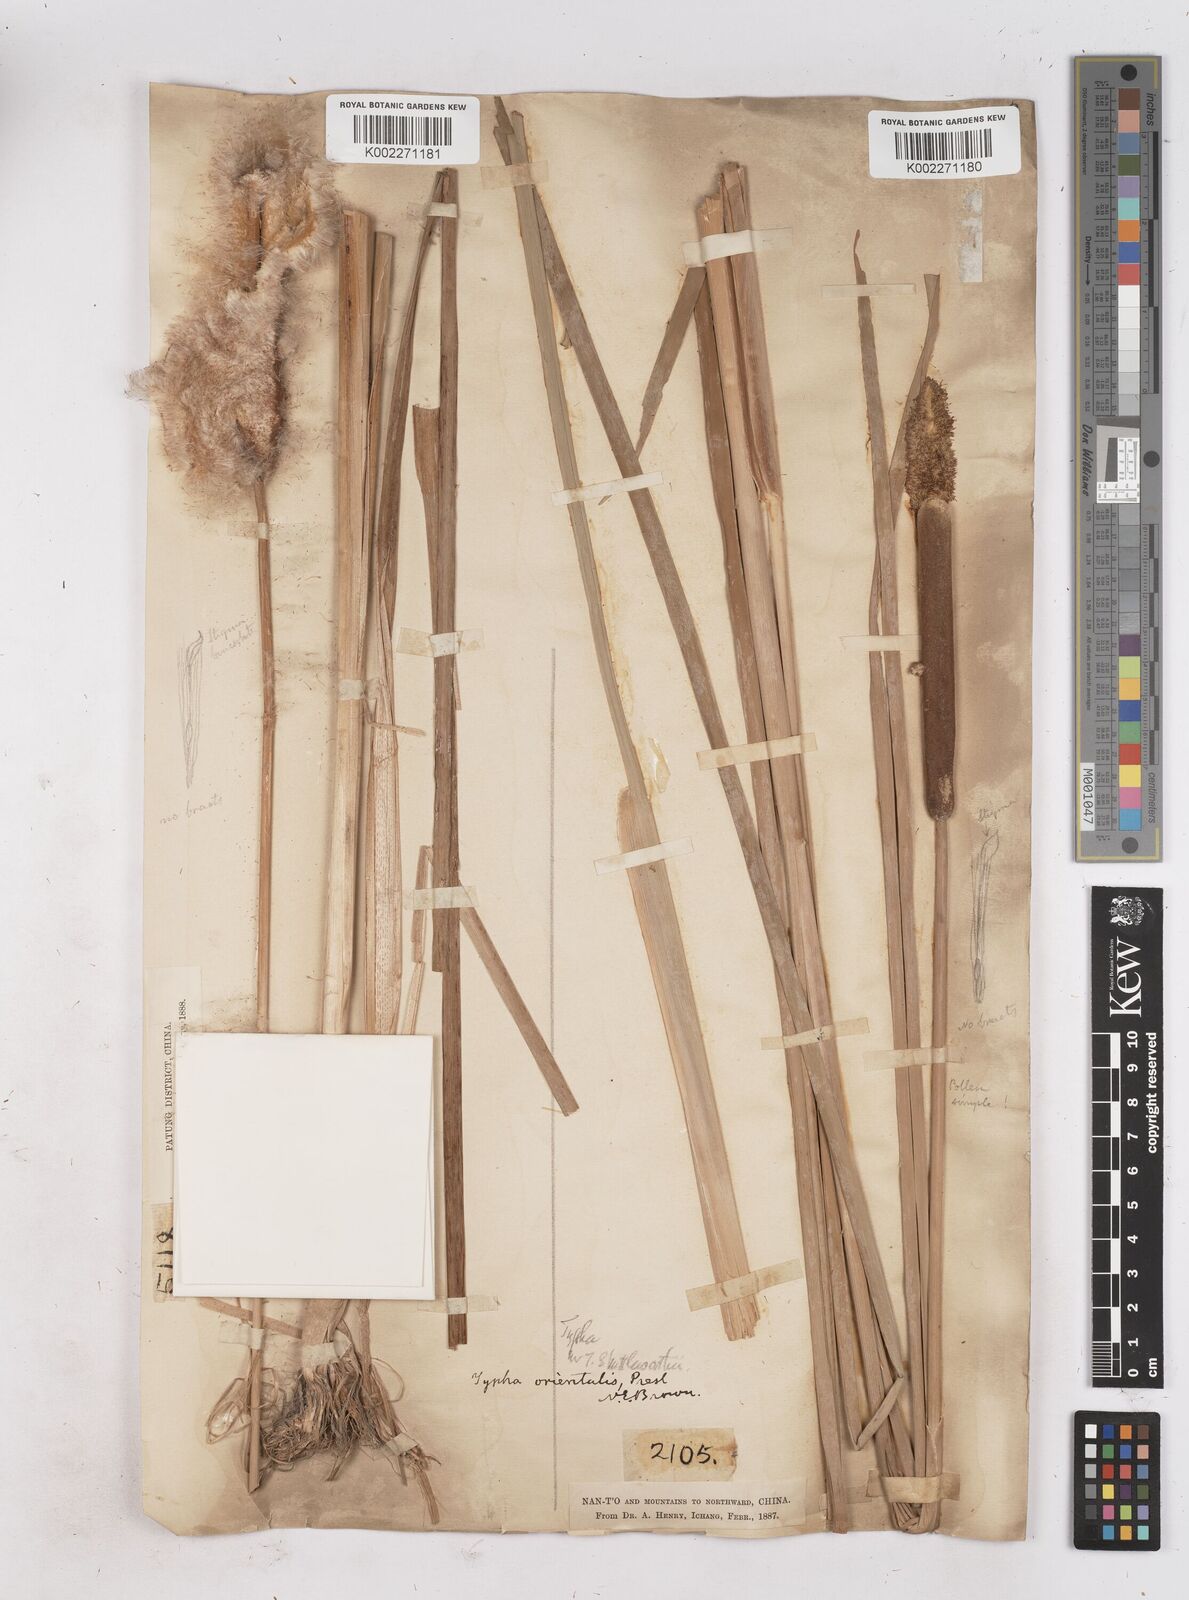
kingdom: Plantae
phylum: Tracheophyta
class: Liliopsida
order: Poales
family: Typhaceae
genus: Typha
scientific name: Typha shuttleworthii
